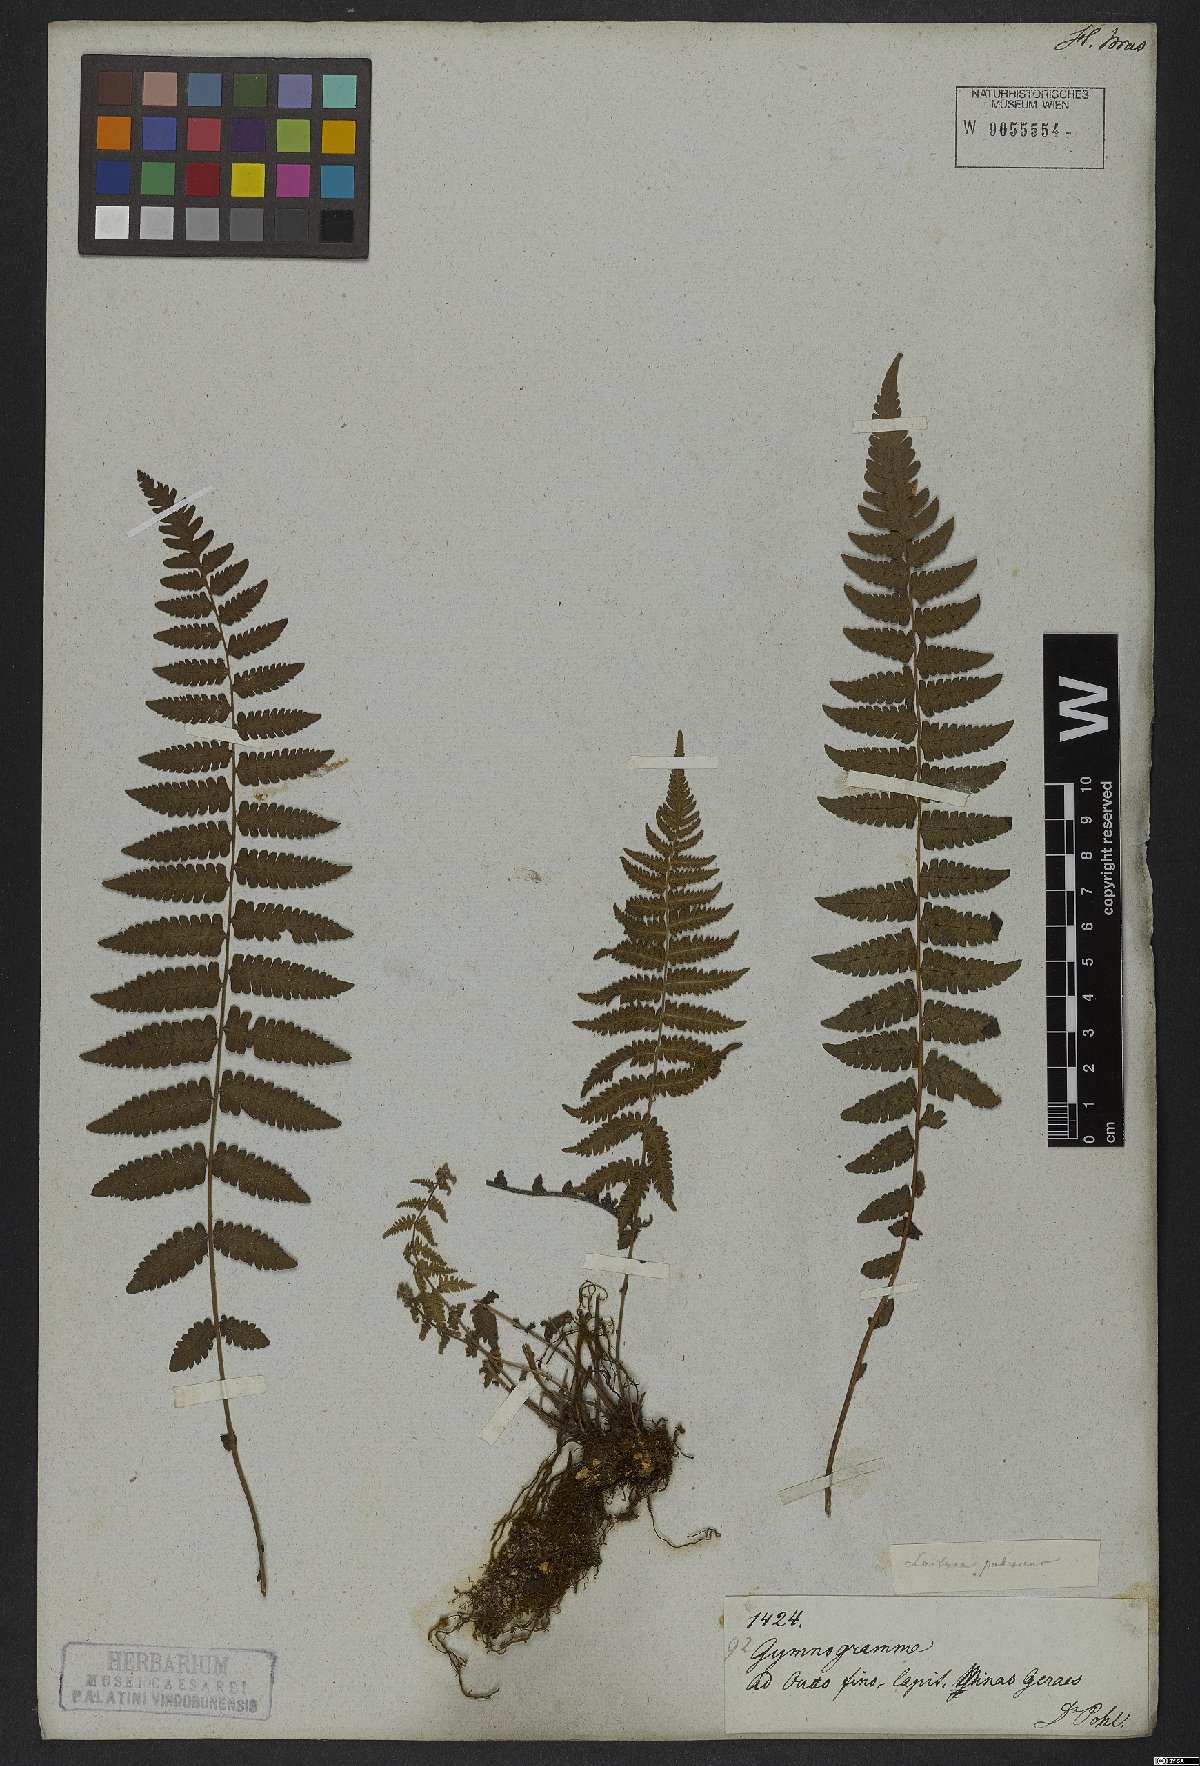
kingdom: Plantae
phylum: Tracheophyta
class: Polypodiopsida
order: Polypodiales
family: Thelypteridaceae
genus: Amauropelta
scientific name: Amauropelta oligocarpa
